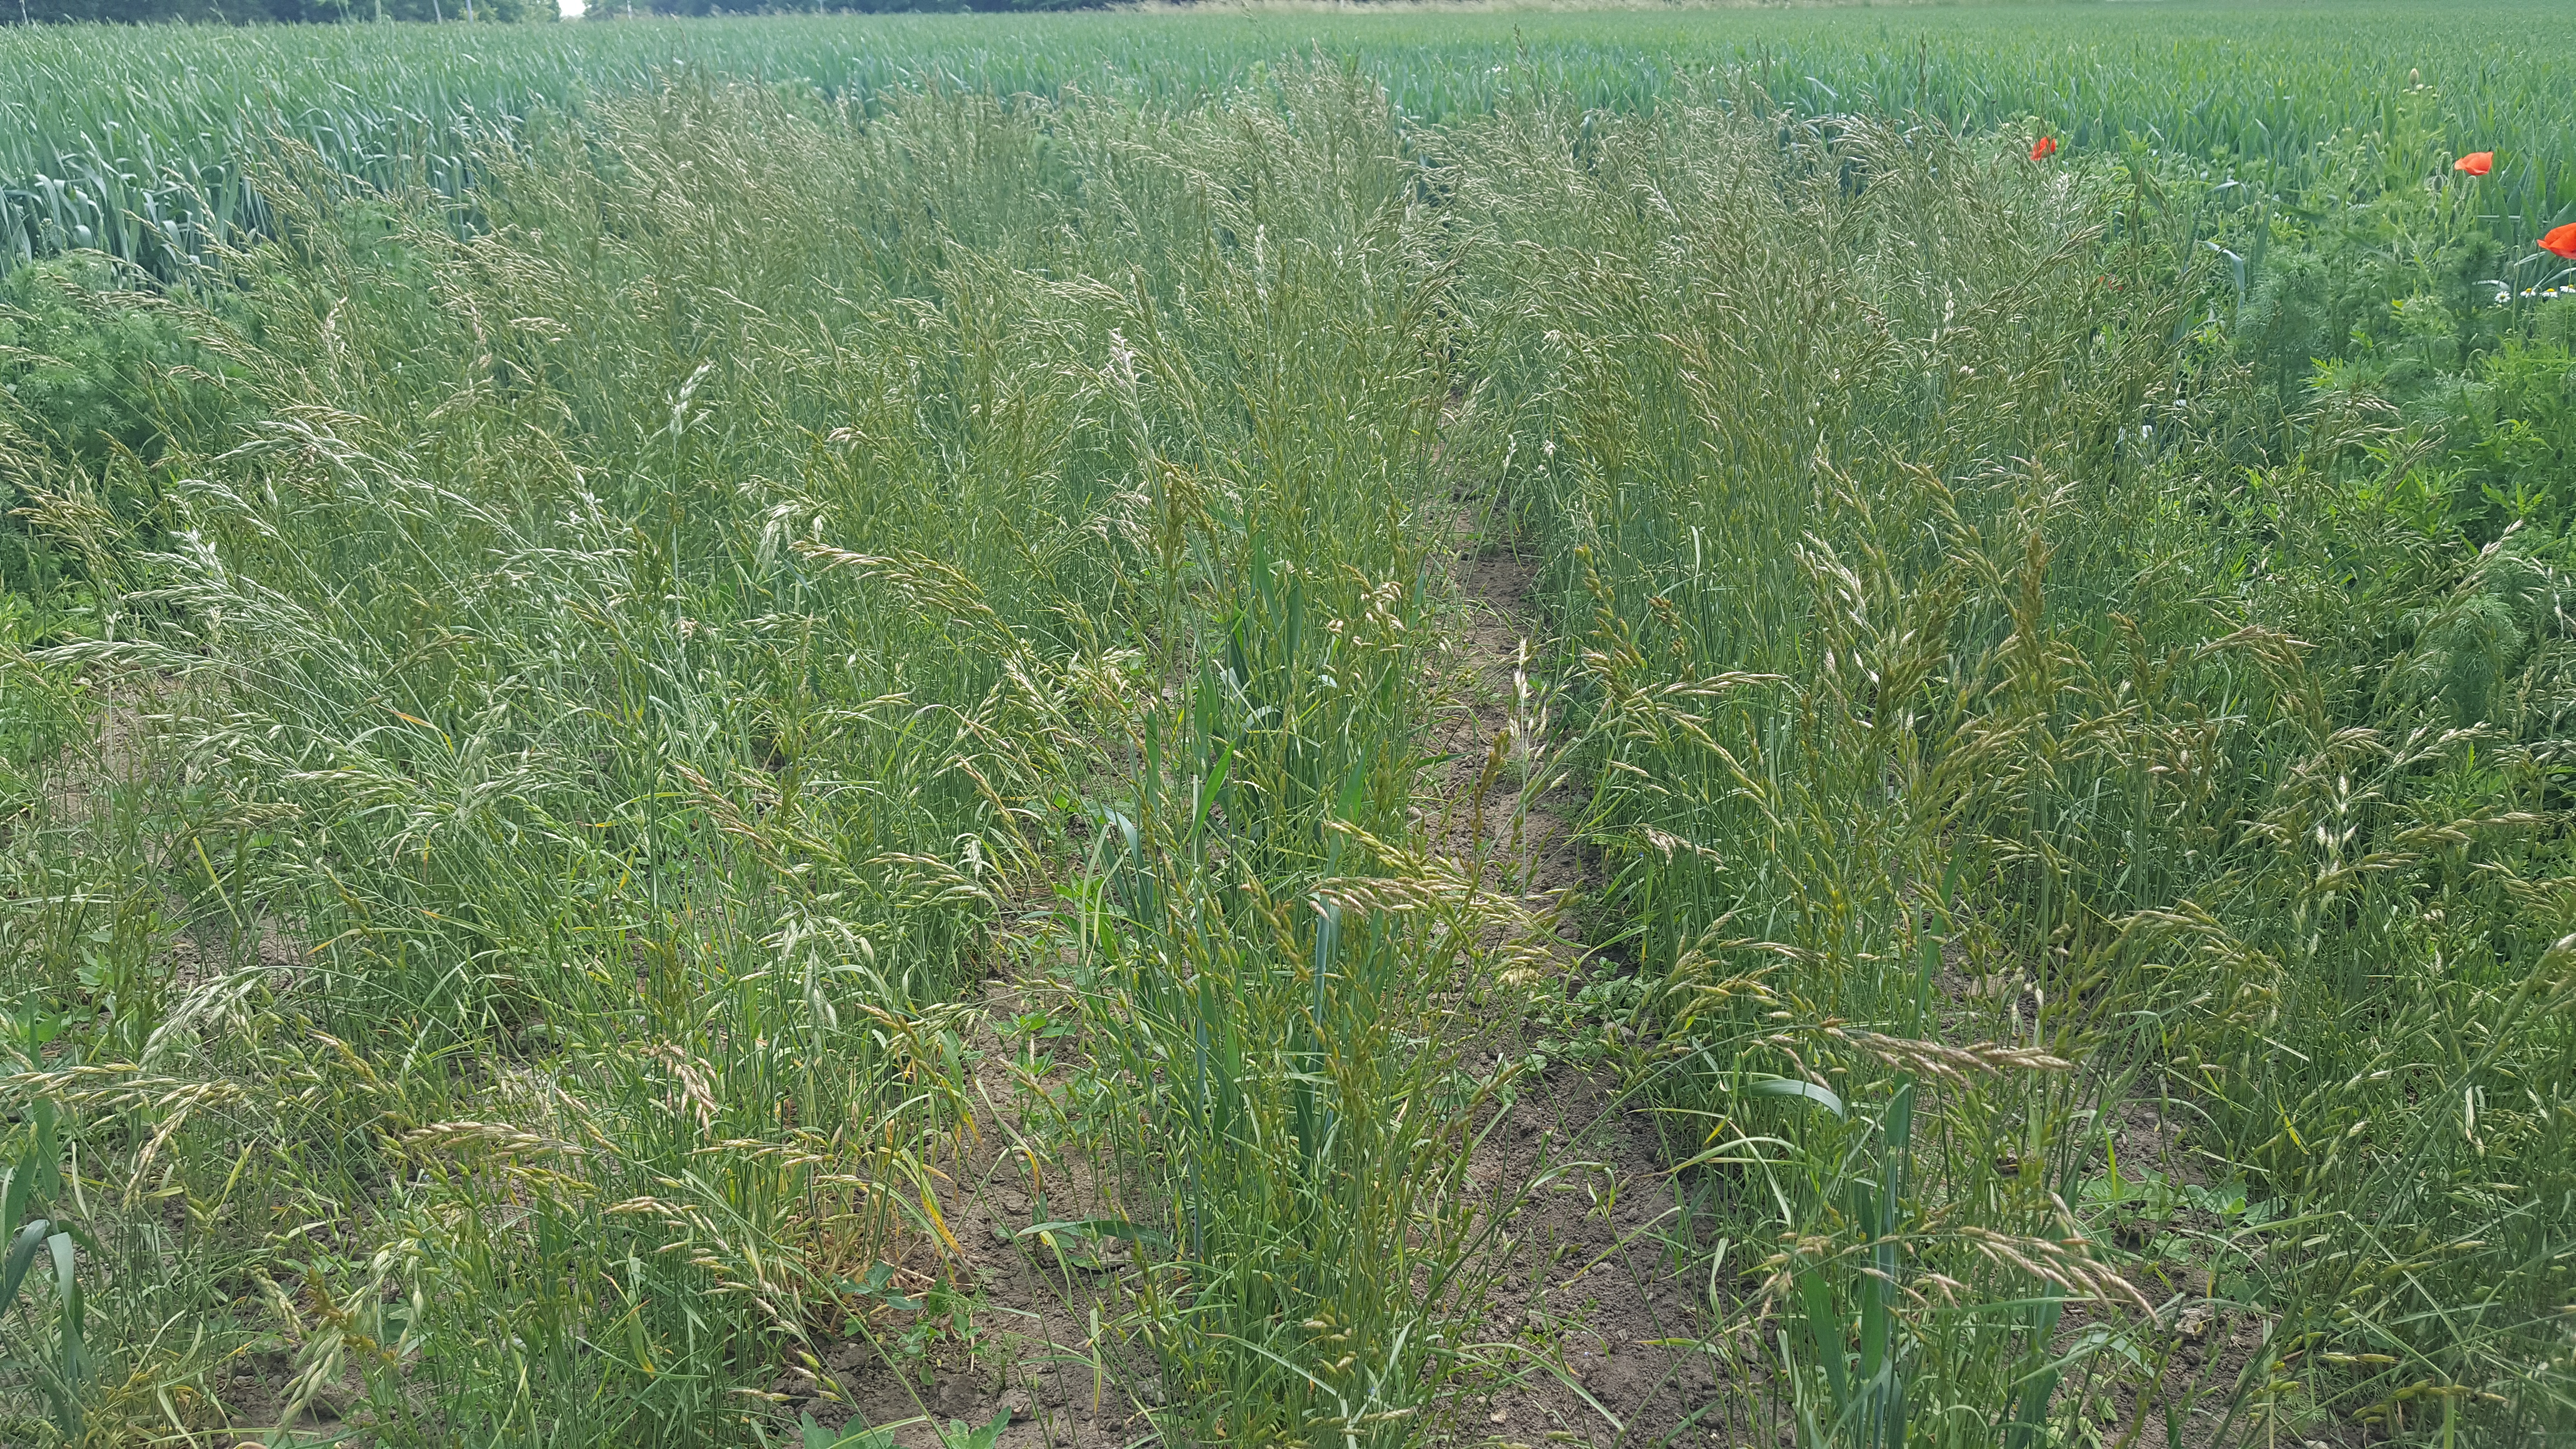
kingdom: Plantae
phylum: Tracheophyta
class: Liliopsida
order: Poales
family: Poaceae
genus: Bromus
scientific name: Bromus secalinus
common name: Rye brome
